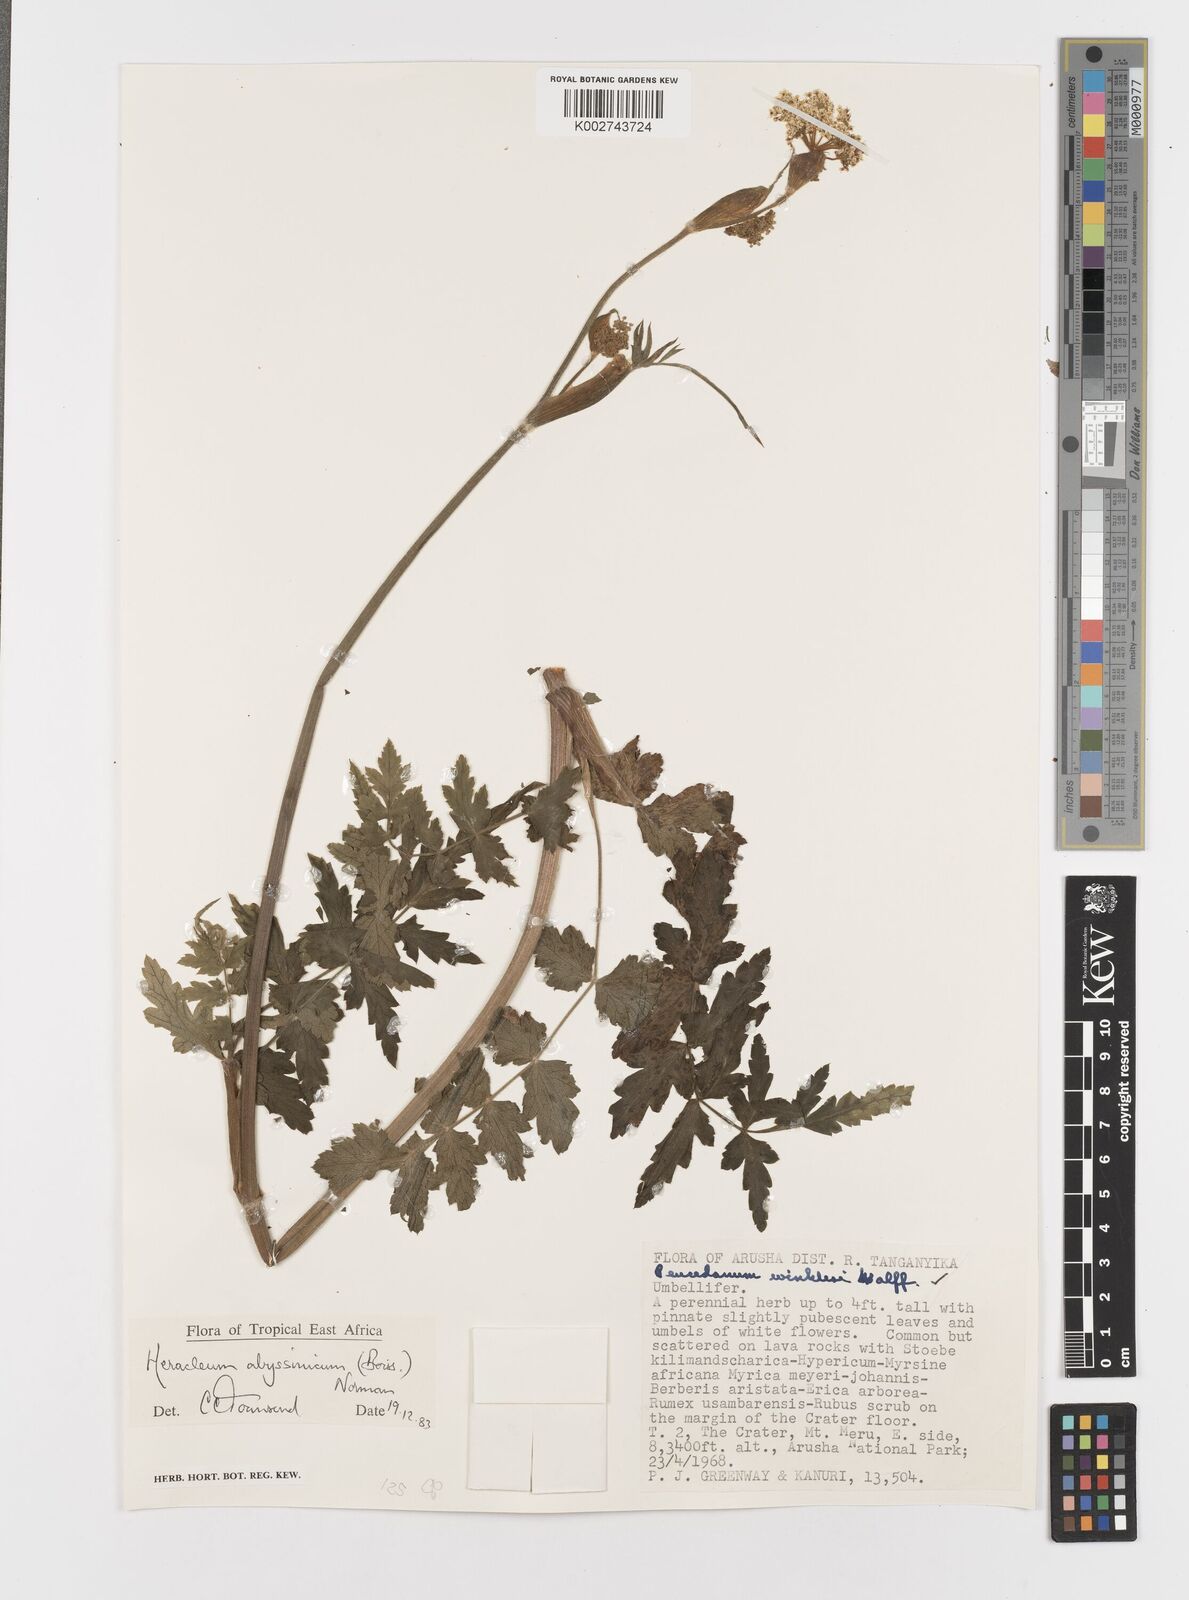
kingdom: Plantae
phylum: Tracheophyta
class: Magnoliopsida
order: Apiales
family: Apiaceae
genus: Heracleum
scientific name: Heracleum abyssinicum
